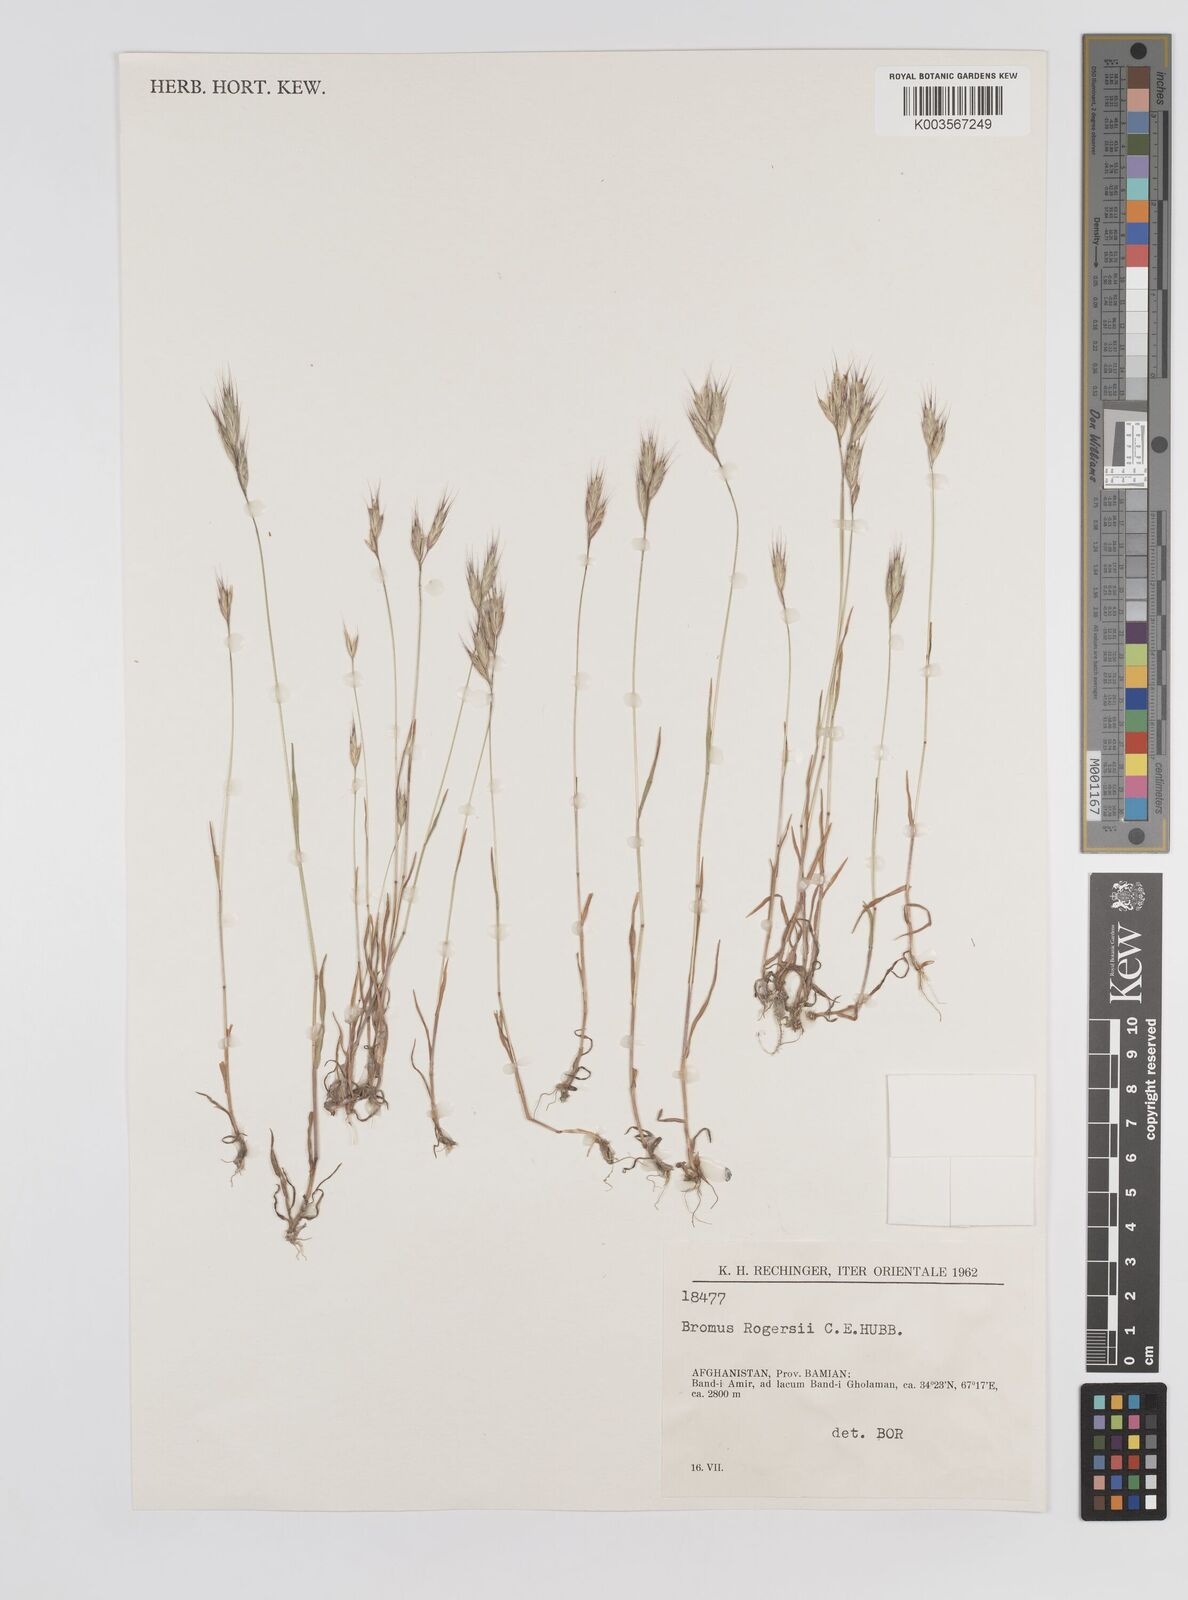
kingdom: Plantae
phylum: Tracheophyta
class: Liliopsida
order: Poales
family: Poaceae
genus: Bromus
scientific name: Bromus danthoniae
